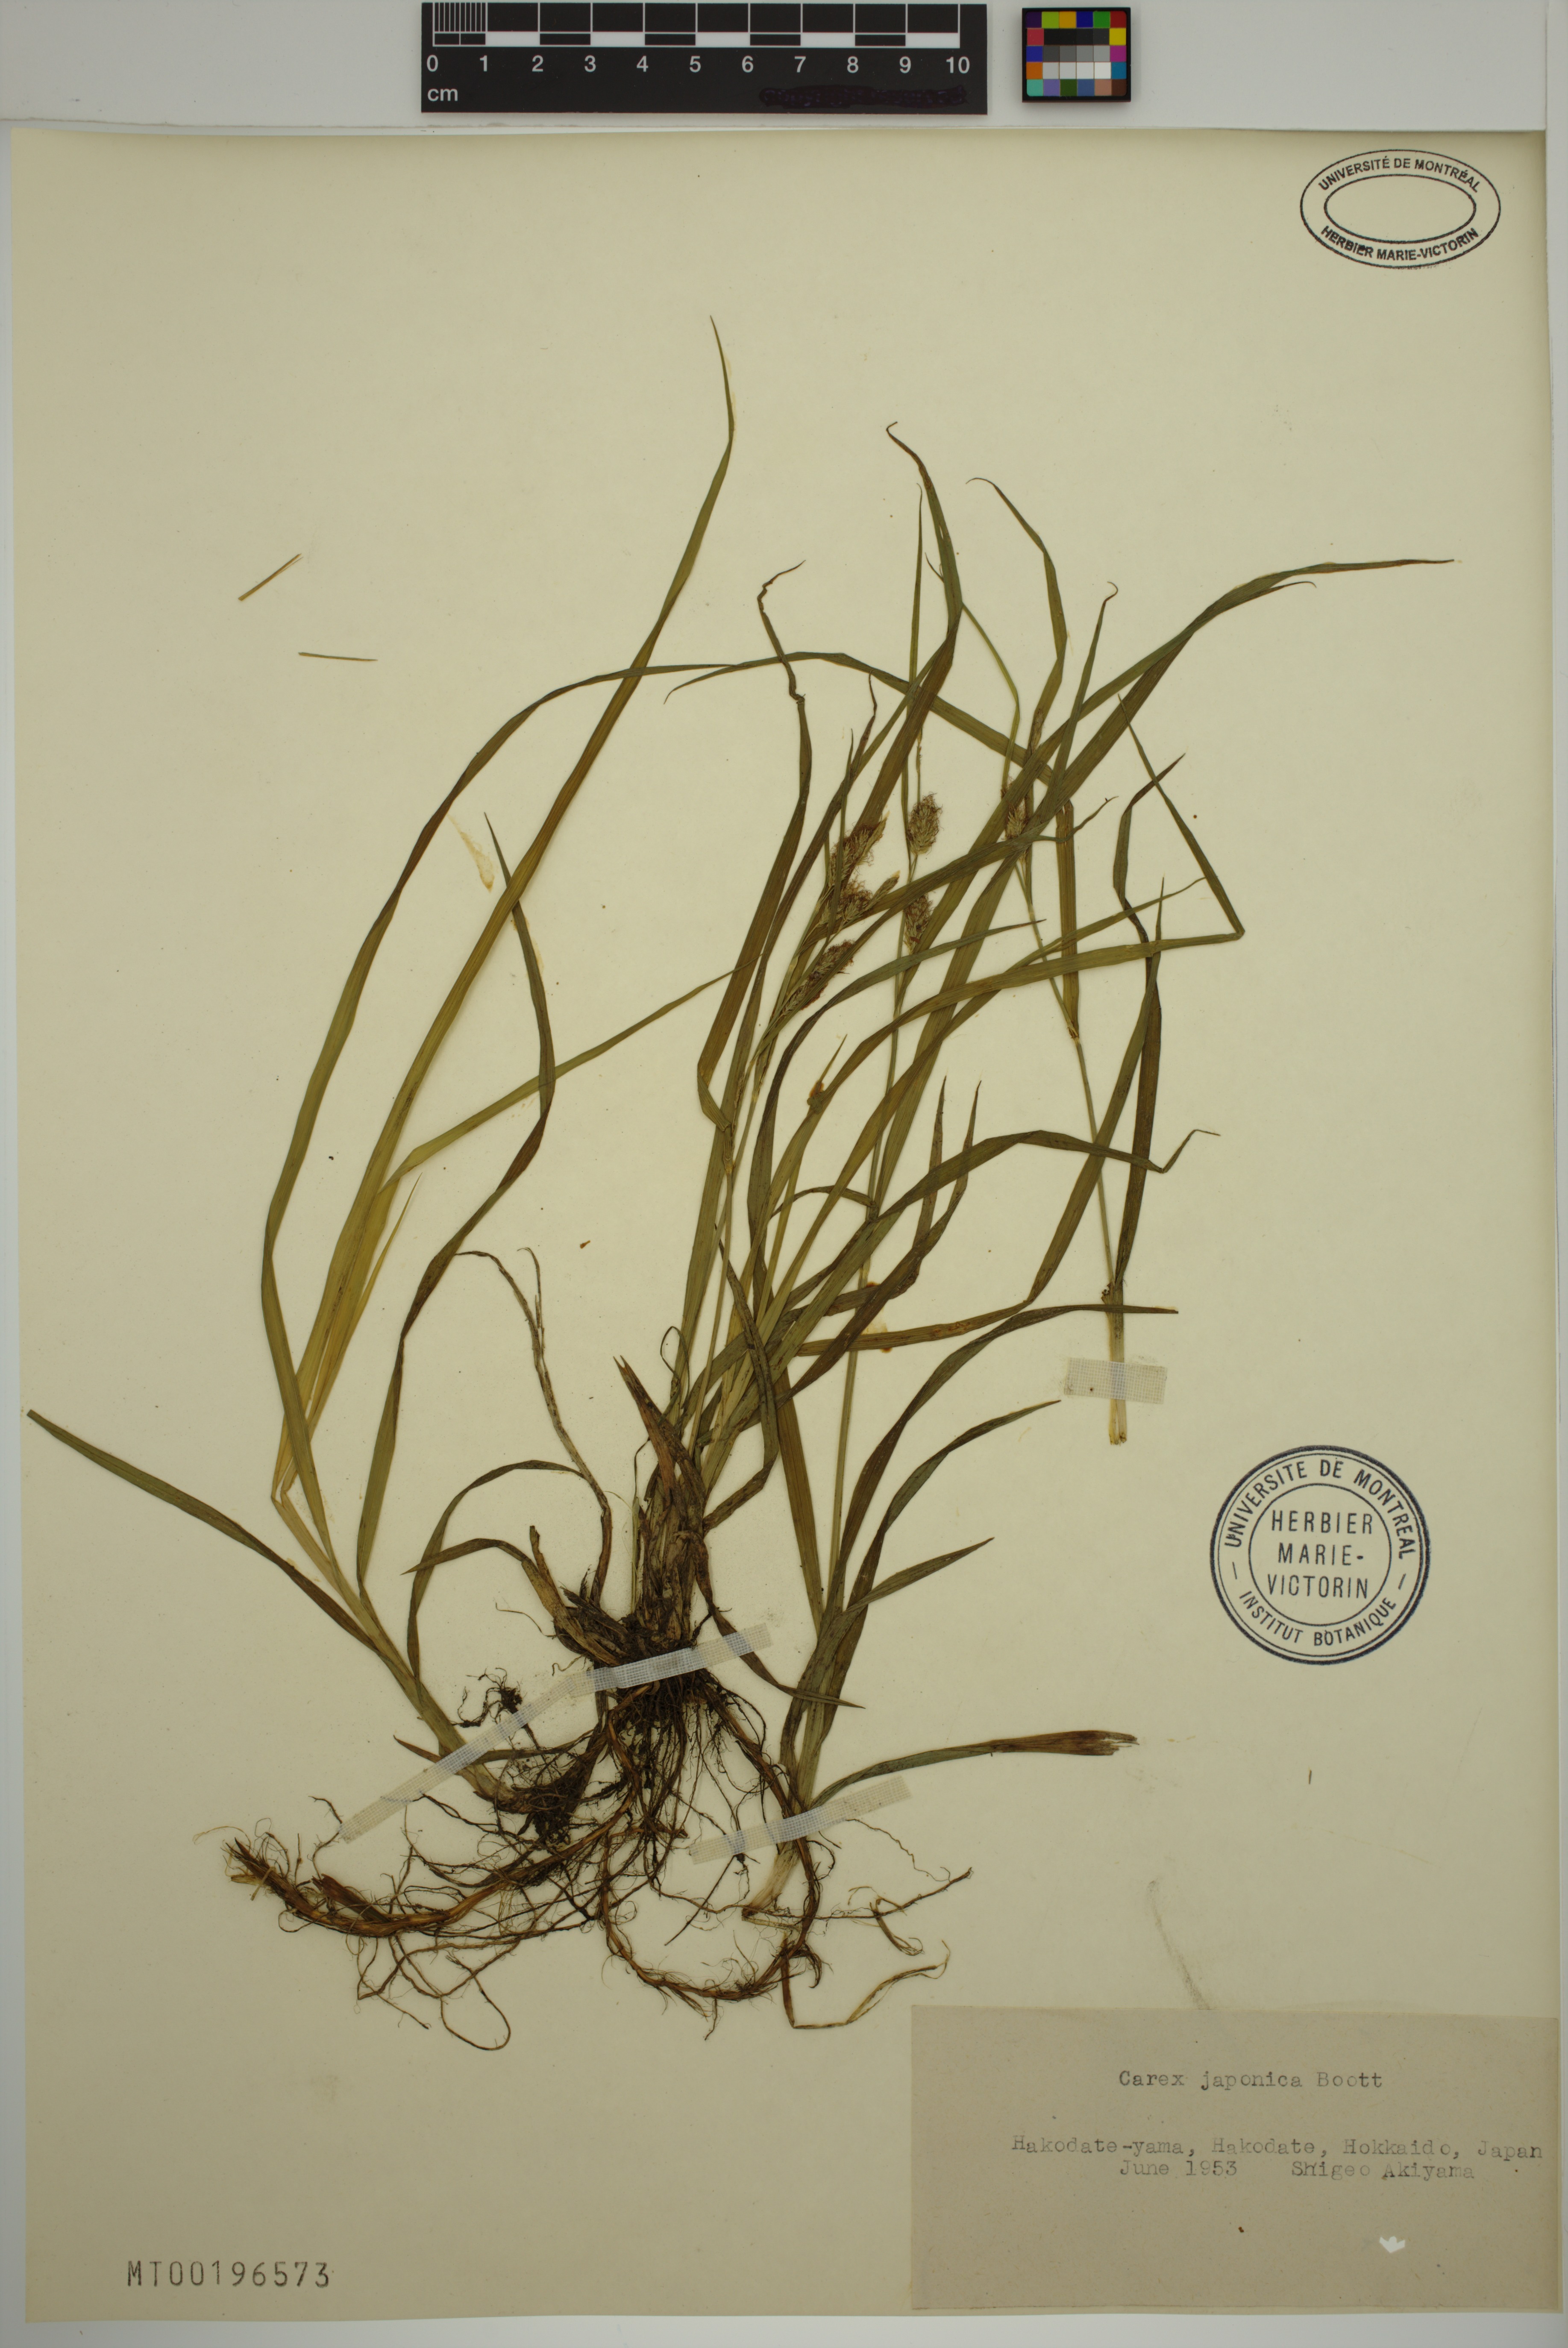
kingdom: Plantae
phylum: Tracheophyta
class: Liliopsida
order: Poales
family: Cyperaceae
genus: Carex
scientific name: Carex japonica
